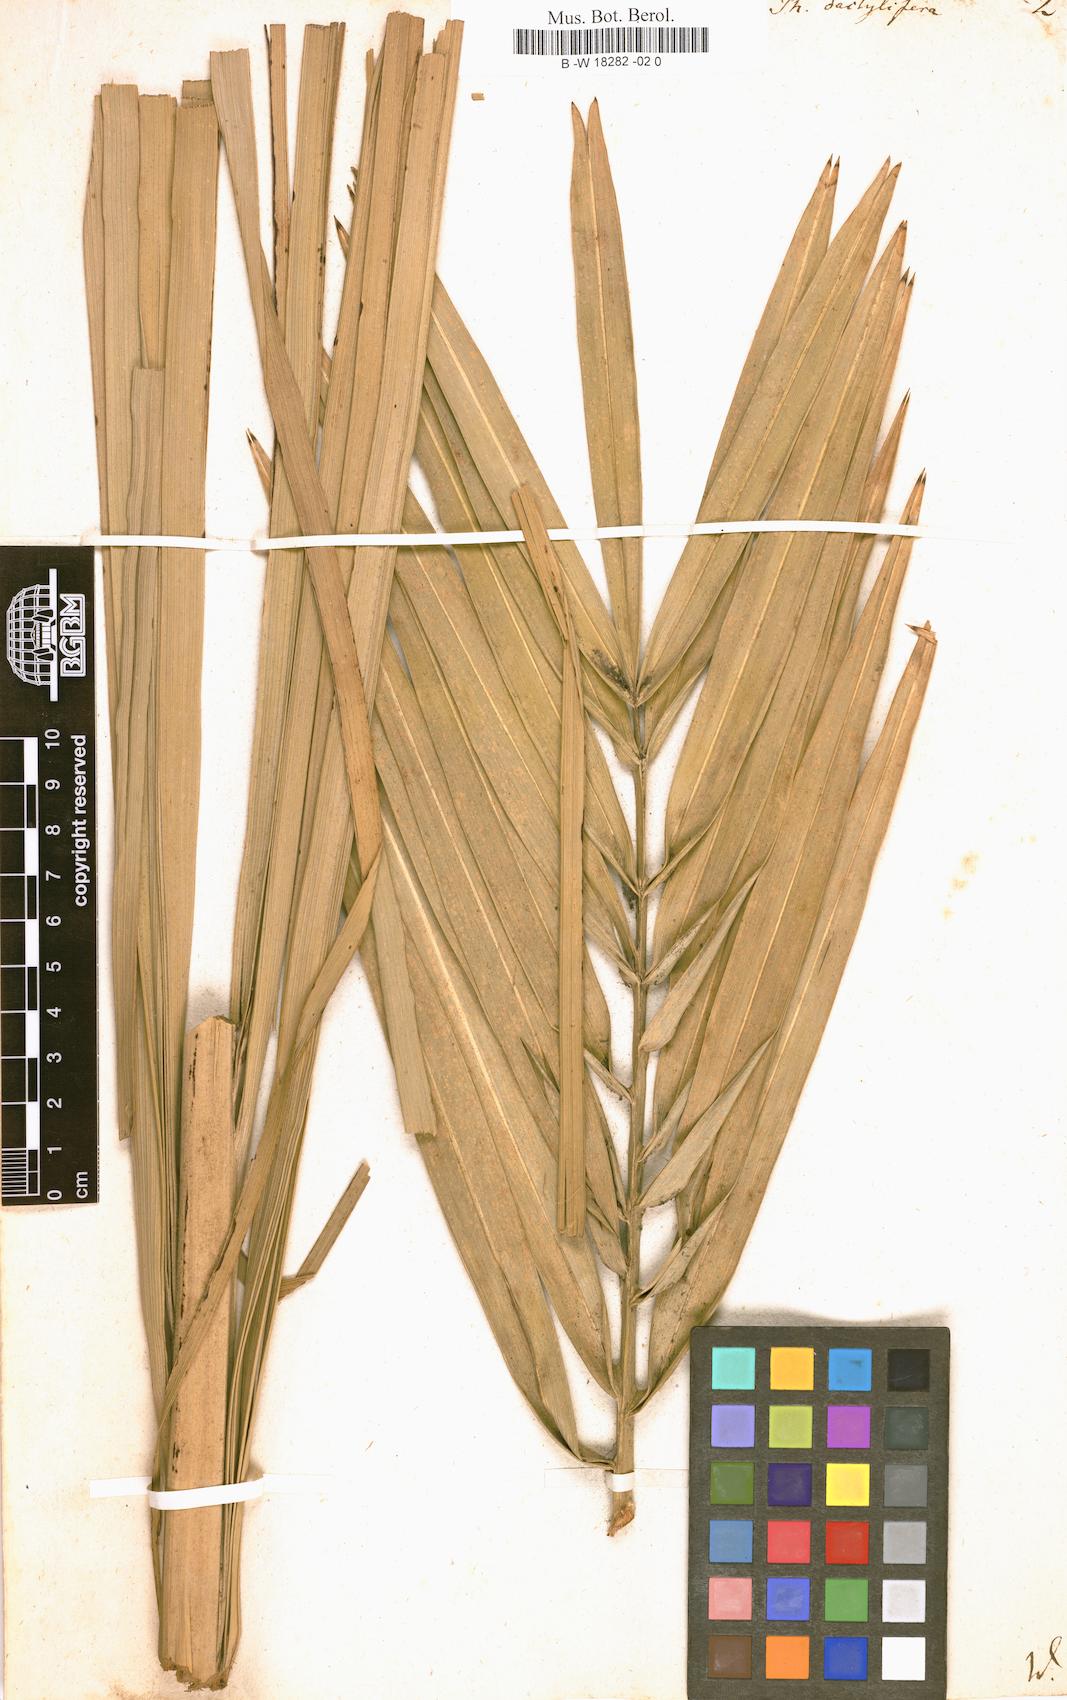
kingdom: Plantae
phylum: Tracheophyta
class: Liliopsida
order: Arecales
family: Arecaceae
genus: Phoenix
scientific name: Phoenix dactylifera
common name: Date palm
